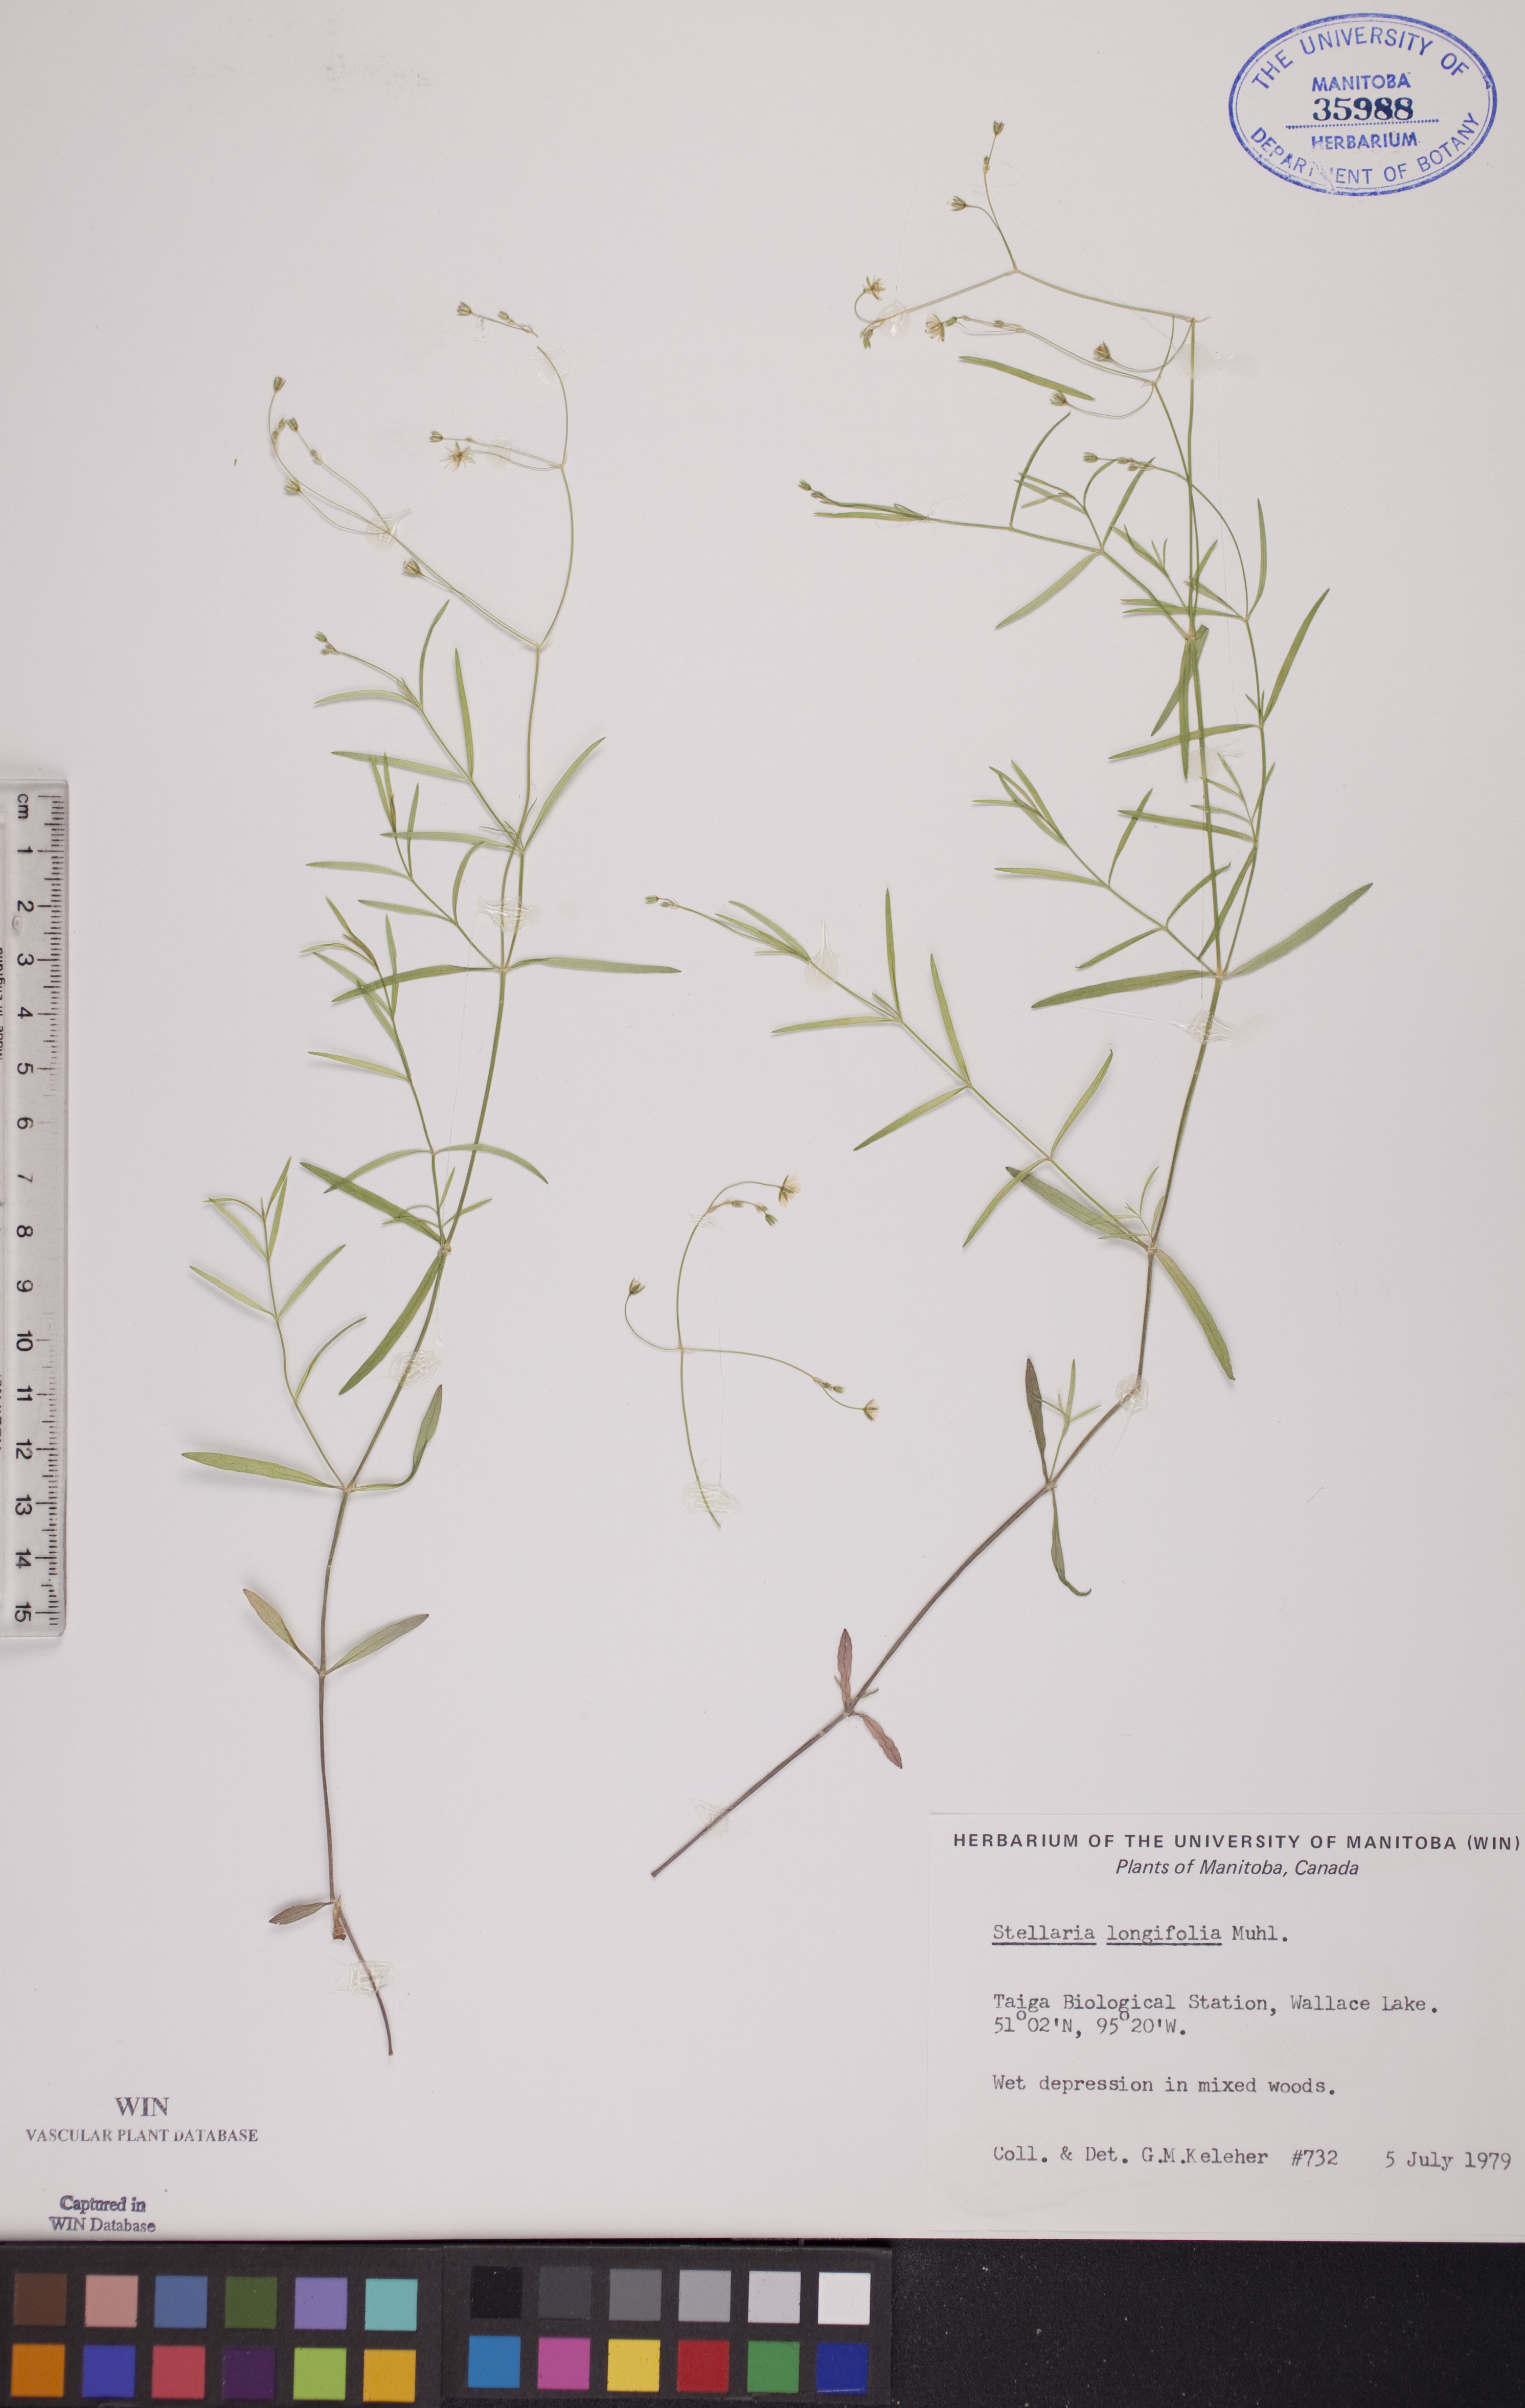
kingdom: Plantae
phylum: Tracheophyta
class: Magnoliopsida
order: Caryophyllales
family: Caryophyllaceae
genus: Stellaria
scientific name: Stellaria longifolia
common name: Long-leaved chickweed
